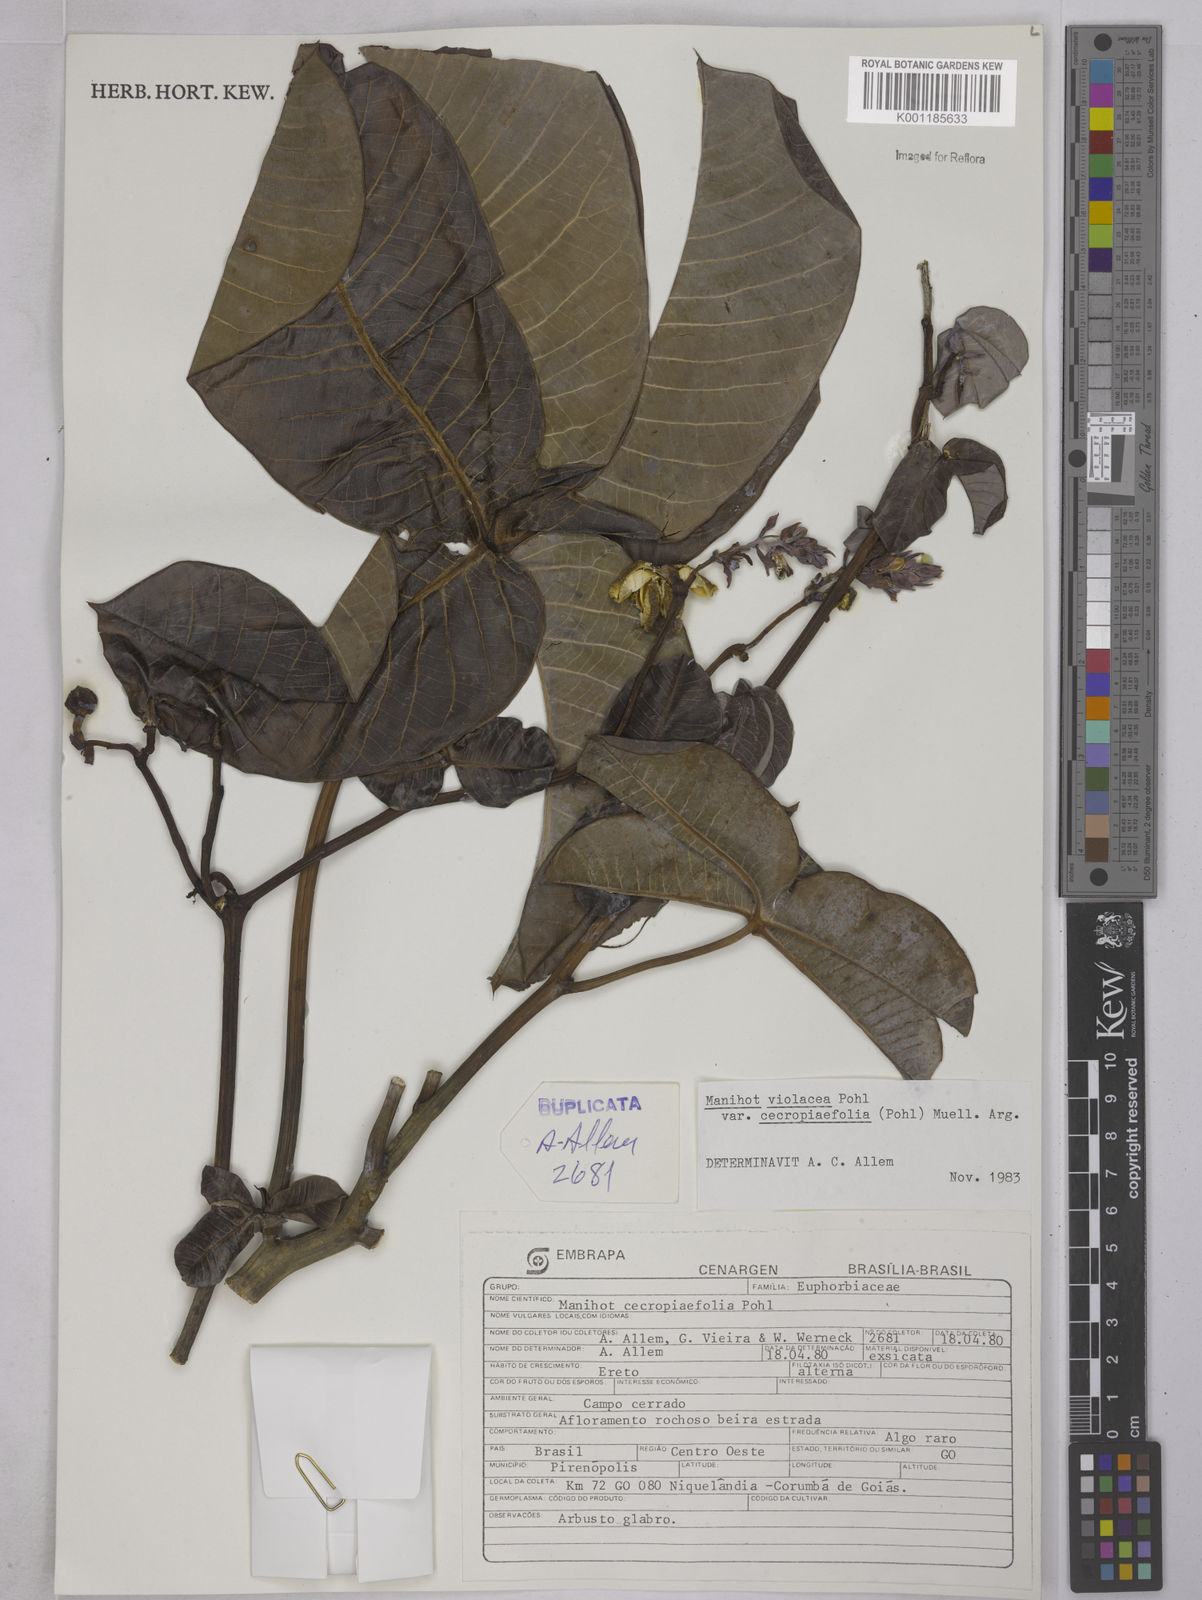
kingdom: Plantae
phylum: Tracheophyta
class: Magnoliopsida
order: Malpighiales
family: Euphorbiaceae
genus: Manihot
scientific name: Manihot cecropiifolia
